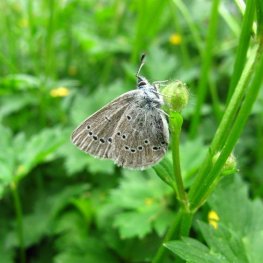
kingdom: Animalia
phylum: Arthropoda
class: Insecta
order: Lepidoptera
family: Lycaenidae
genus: Glaucopsyche
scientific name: Glaucopsyche lygdamus
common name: Silvery Blue
